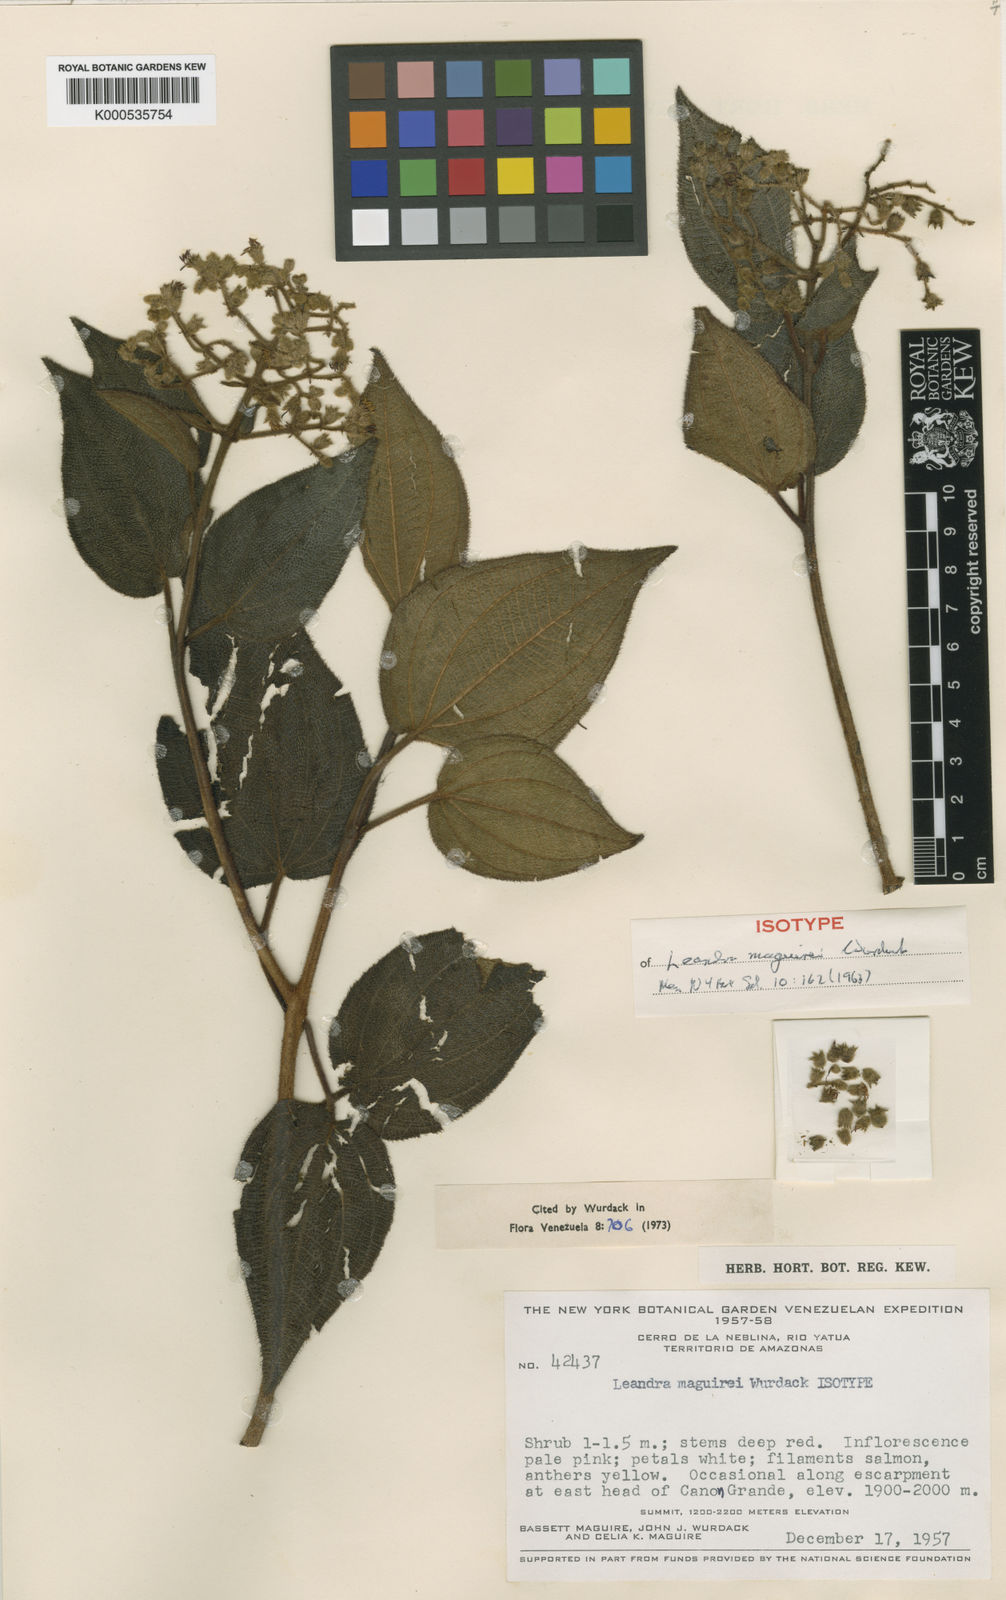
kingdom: Plantae
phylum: Tracheophyta
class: Magnoliopsida
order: Myrtales
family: Melastomataceae
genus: Miconia
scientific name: Miconia secunmaguirei
